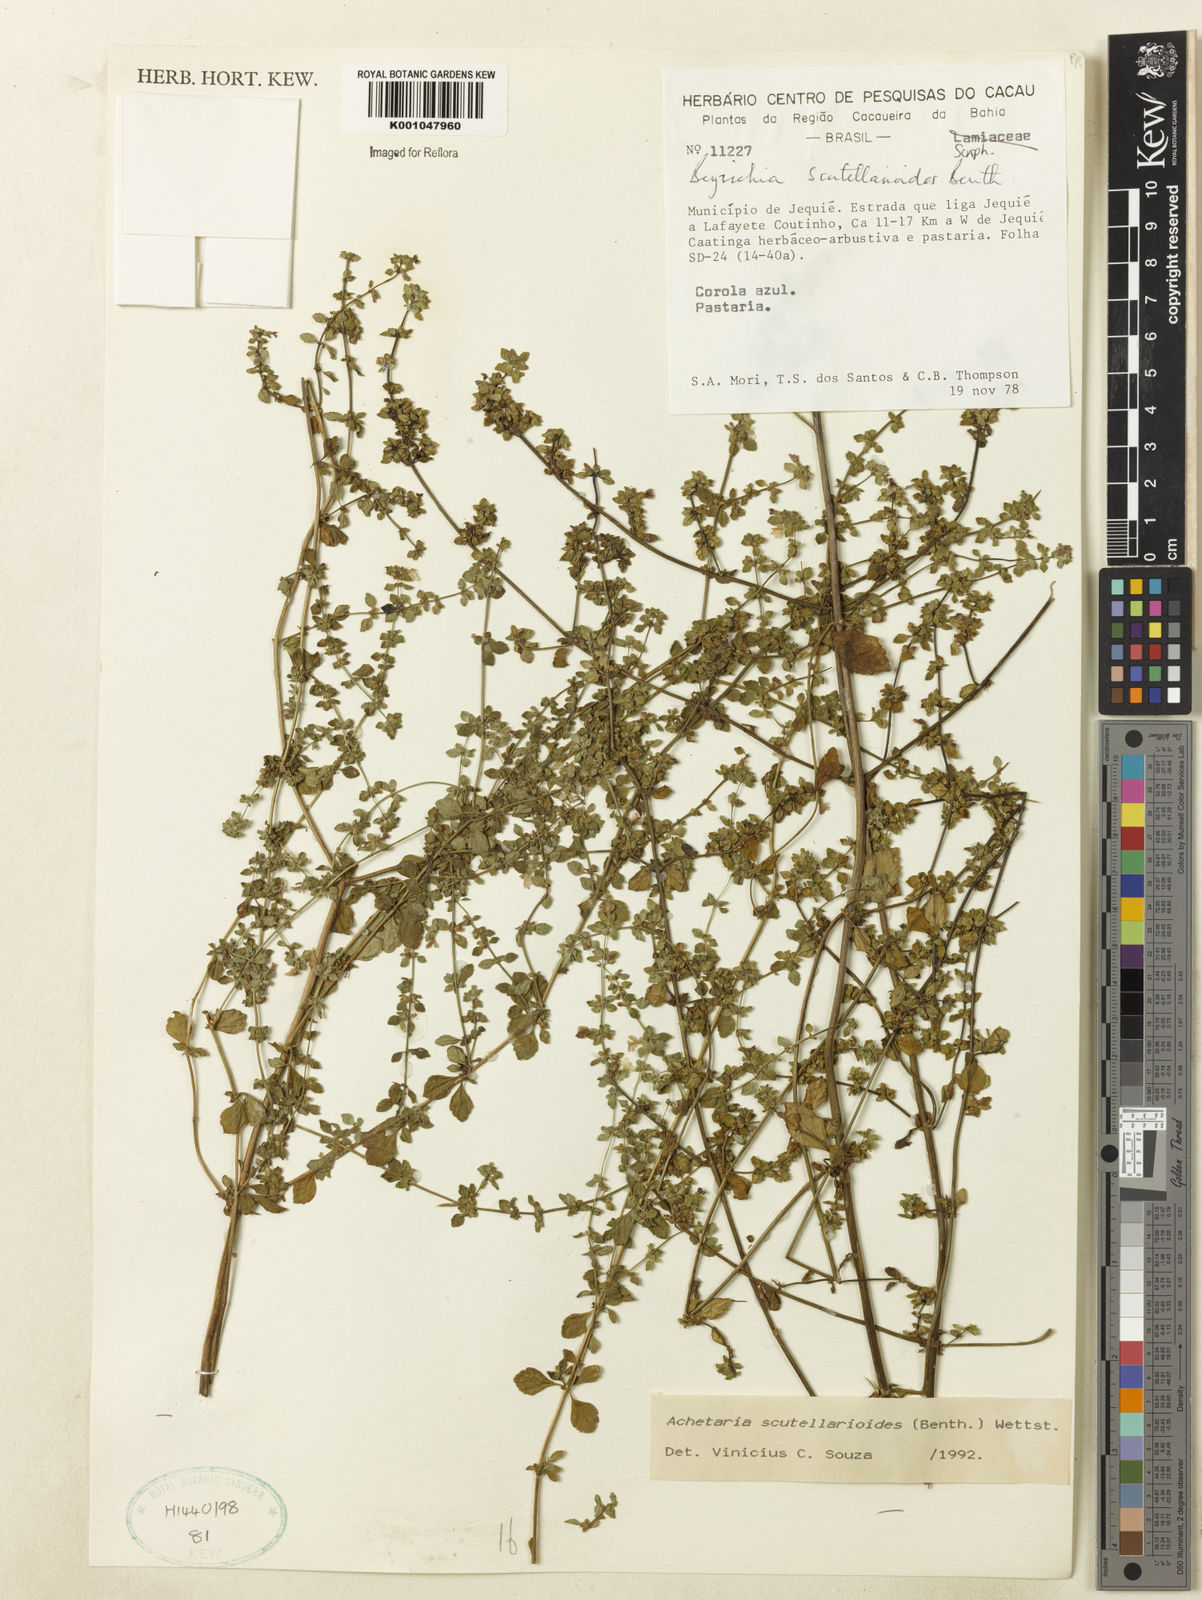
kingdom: Plantae
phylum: Tracheophyta
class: Magnoliopsida
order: Lamiales
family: Plantaginaceae
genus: Matourea
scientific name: Matourea scutellarioides
